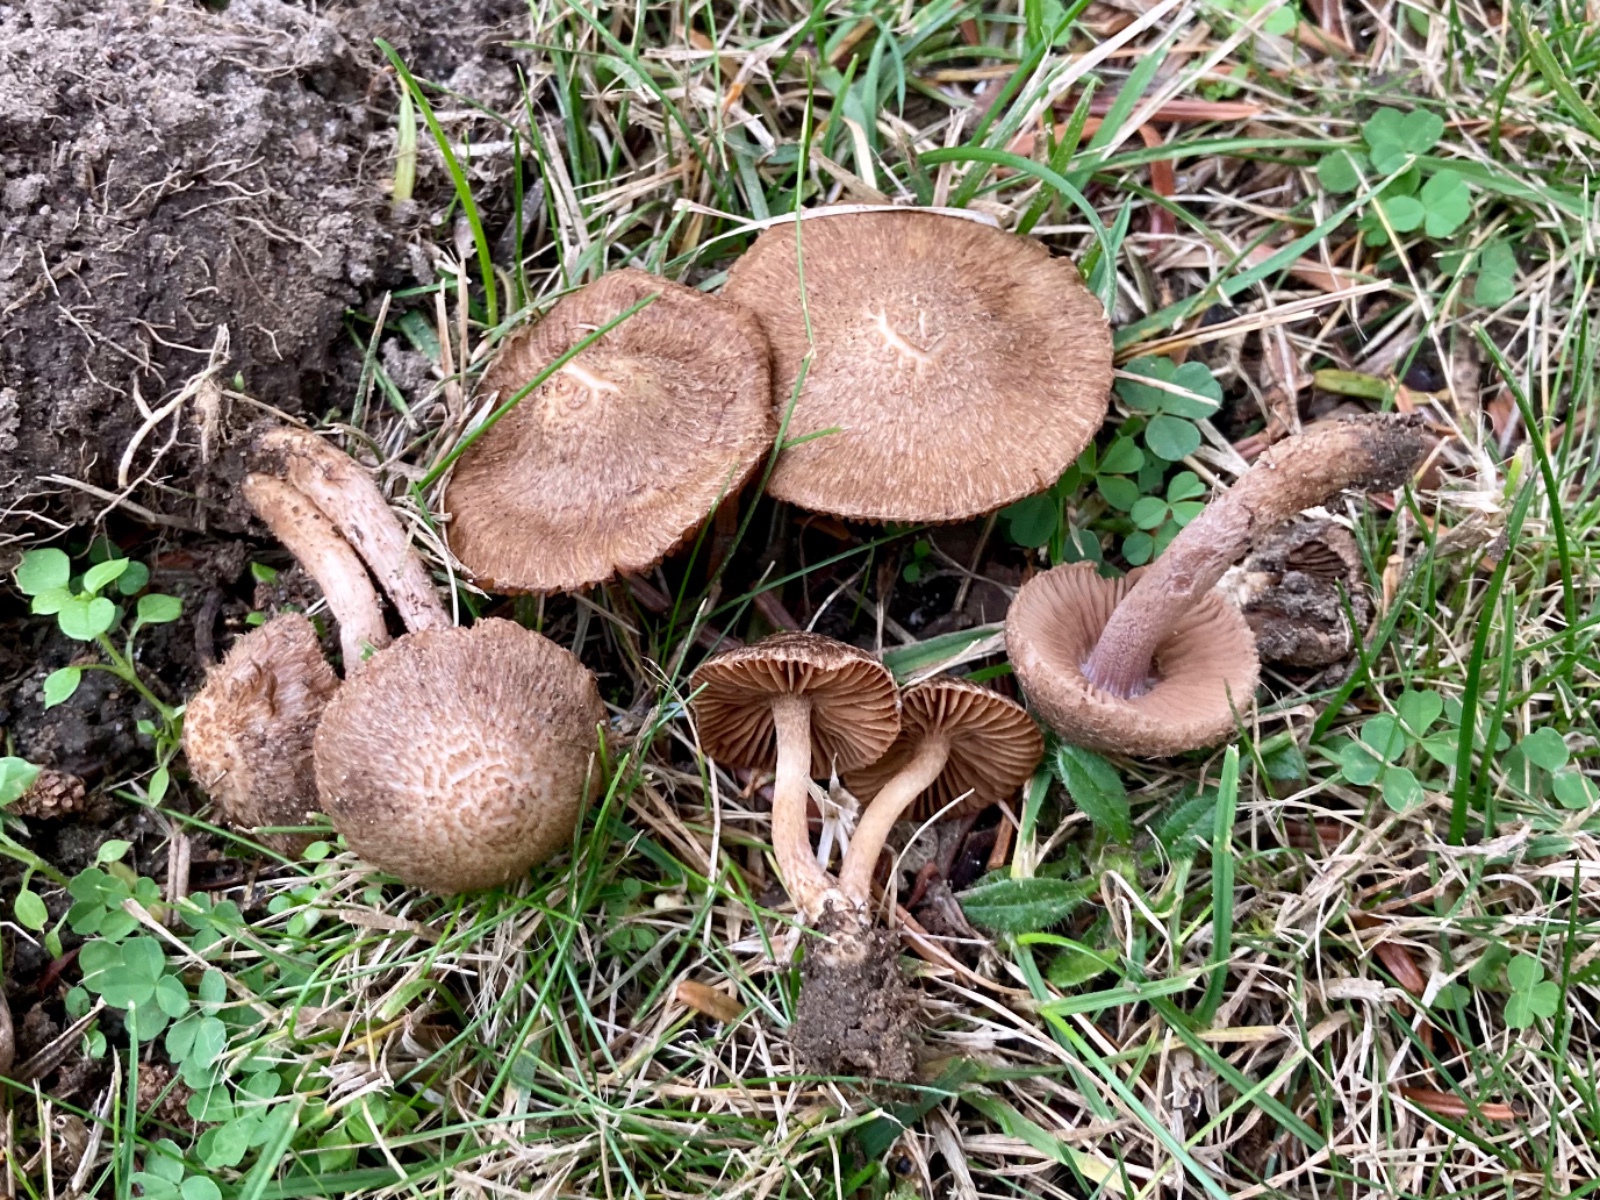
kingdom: Fungi
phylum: Basidiomycota
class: Agaricomycetes
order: Agaricales
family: Inocybaceae
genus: Inocybe
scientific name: Inocybe cincinnata
